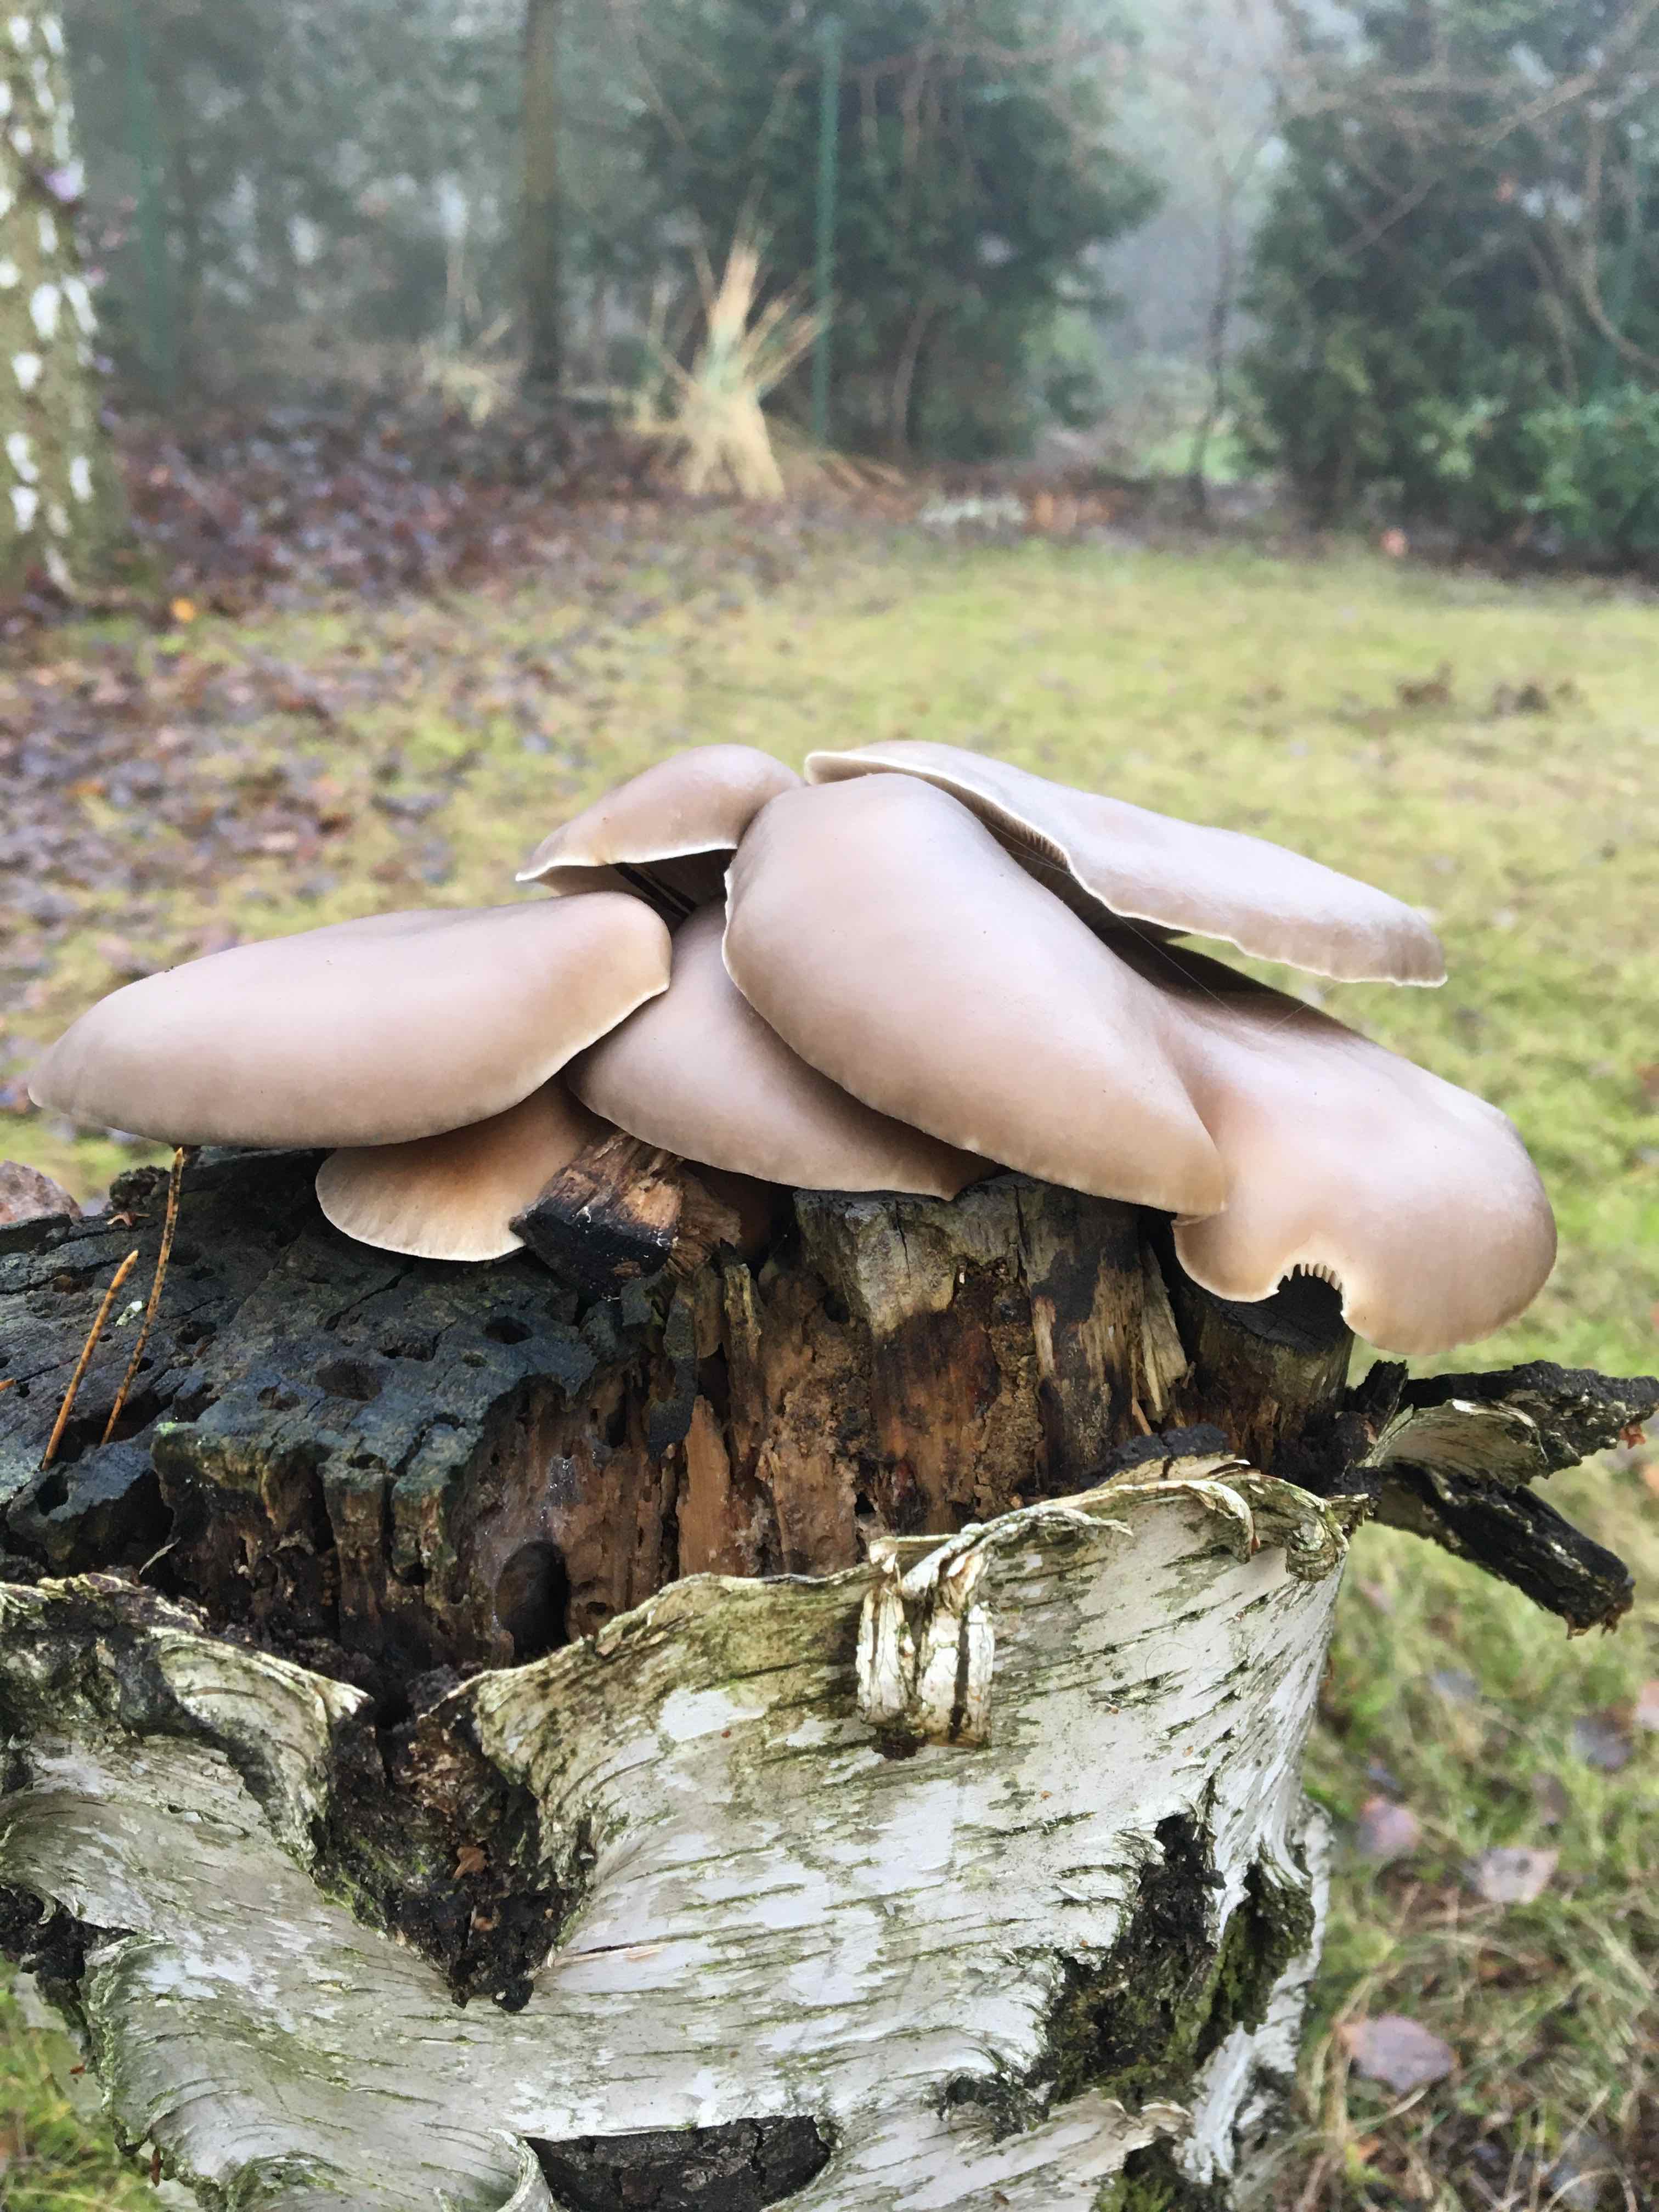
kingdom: Fungi
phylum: Basidiomycota
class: Agaricomycetes
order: Agaricales
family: Pleurotaceae
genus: Pleurotus
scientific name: Pleurotus ostreatus
